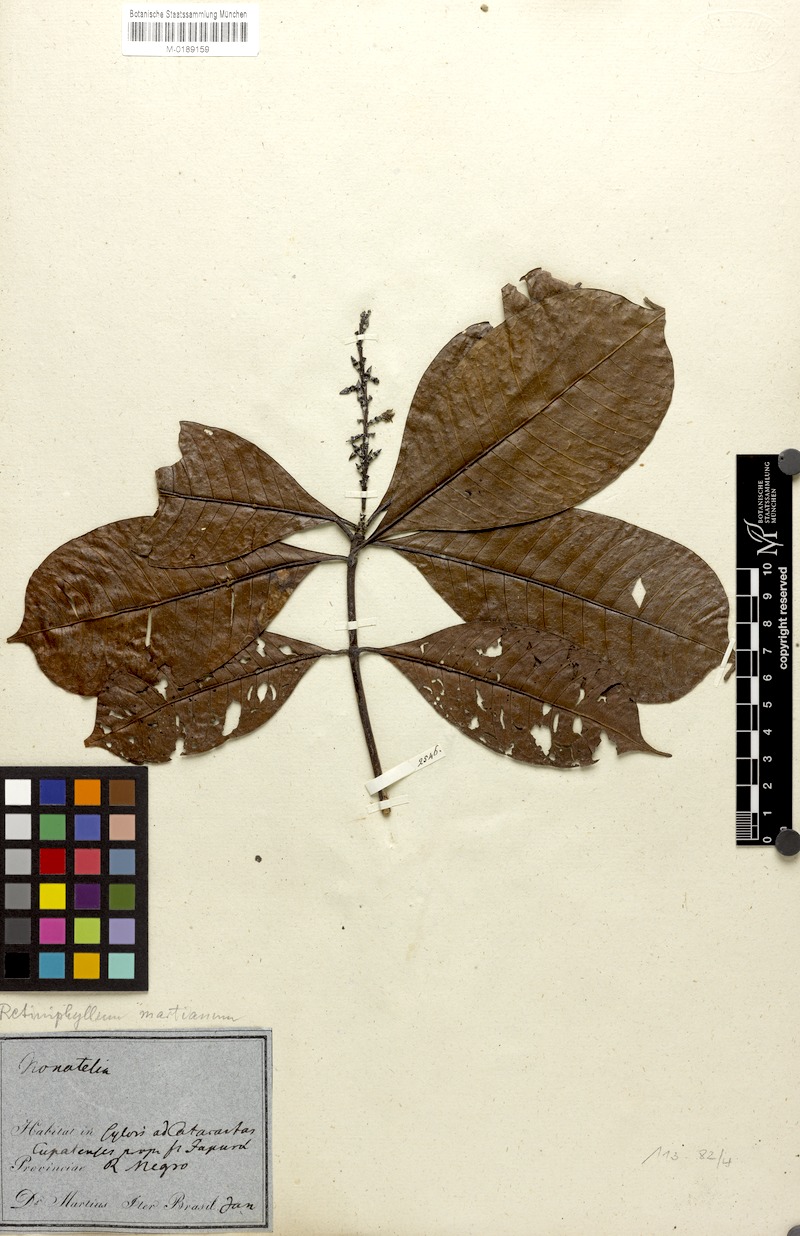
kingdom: Plantae
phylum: Tracheophyta
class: Magnoliopsida
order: Gentianales
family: Rubiaceae
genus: Retiniphyllum
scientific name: Retiniphyllum concolor
